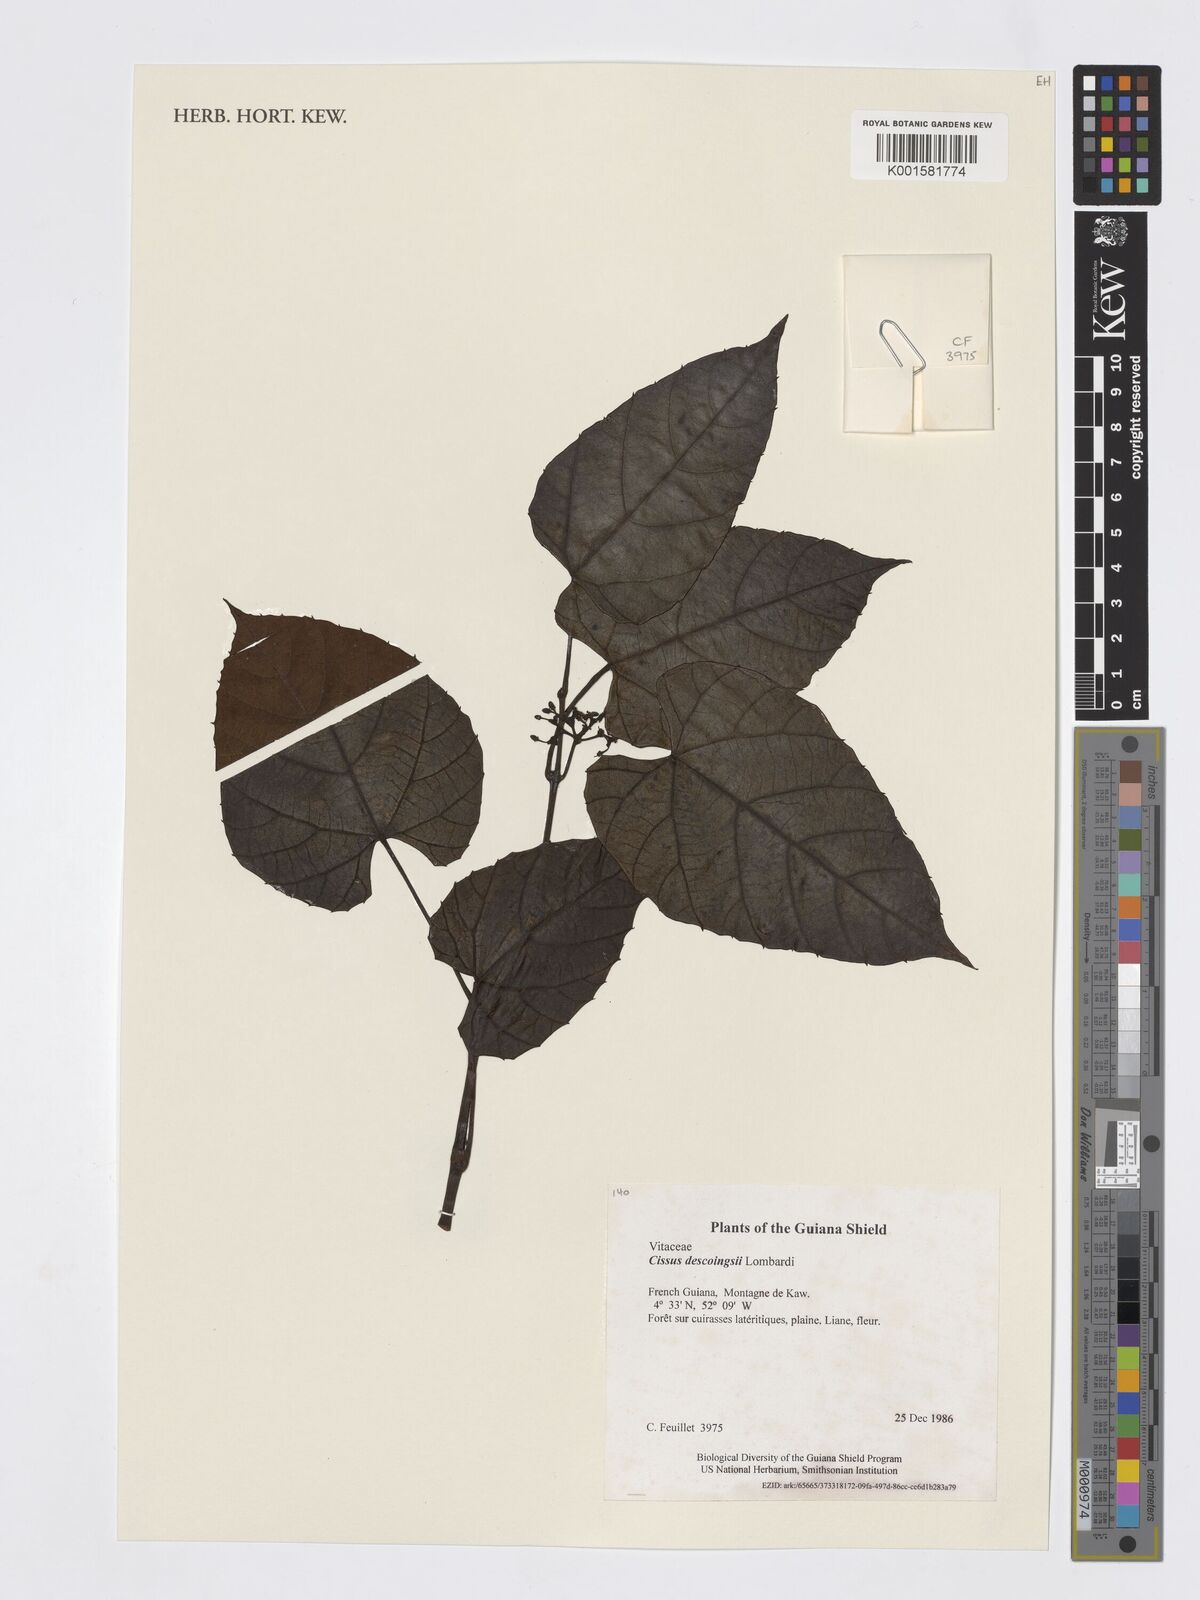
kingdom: Plantae
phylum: Tracheophyta
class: Magnoliopsida
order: Vitales
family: Vitaceae
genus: Cissus
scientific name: Cissus descoingsii
